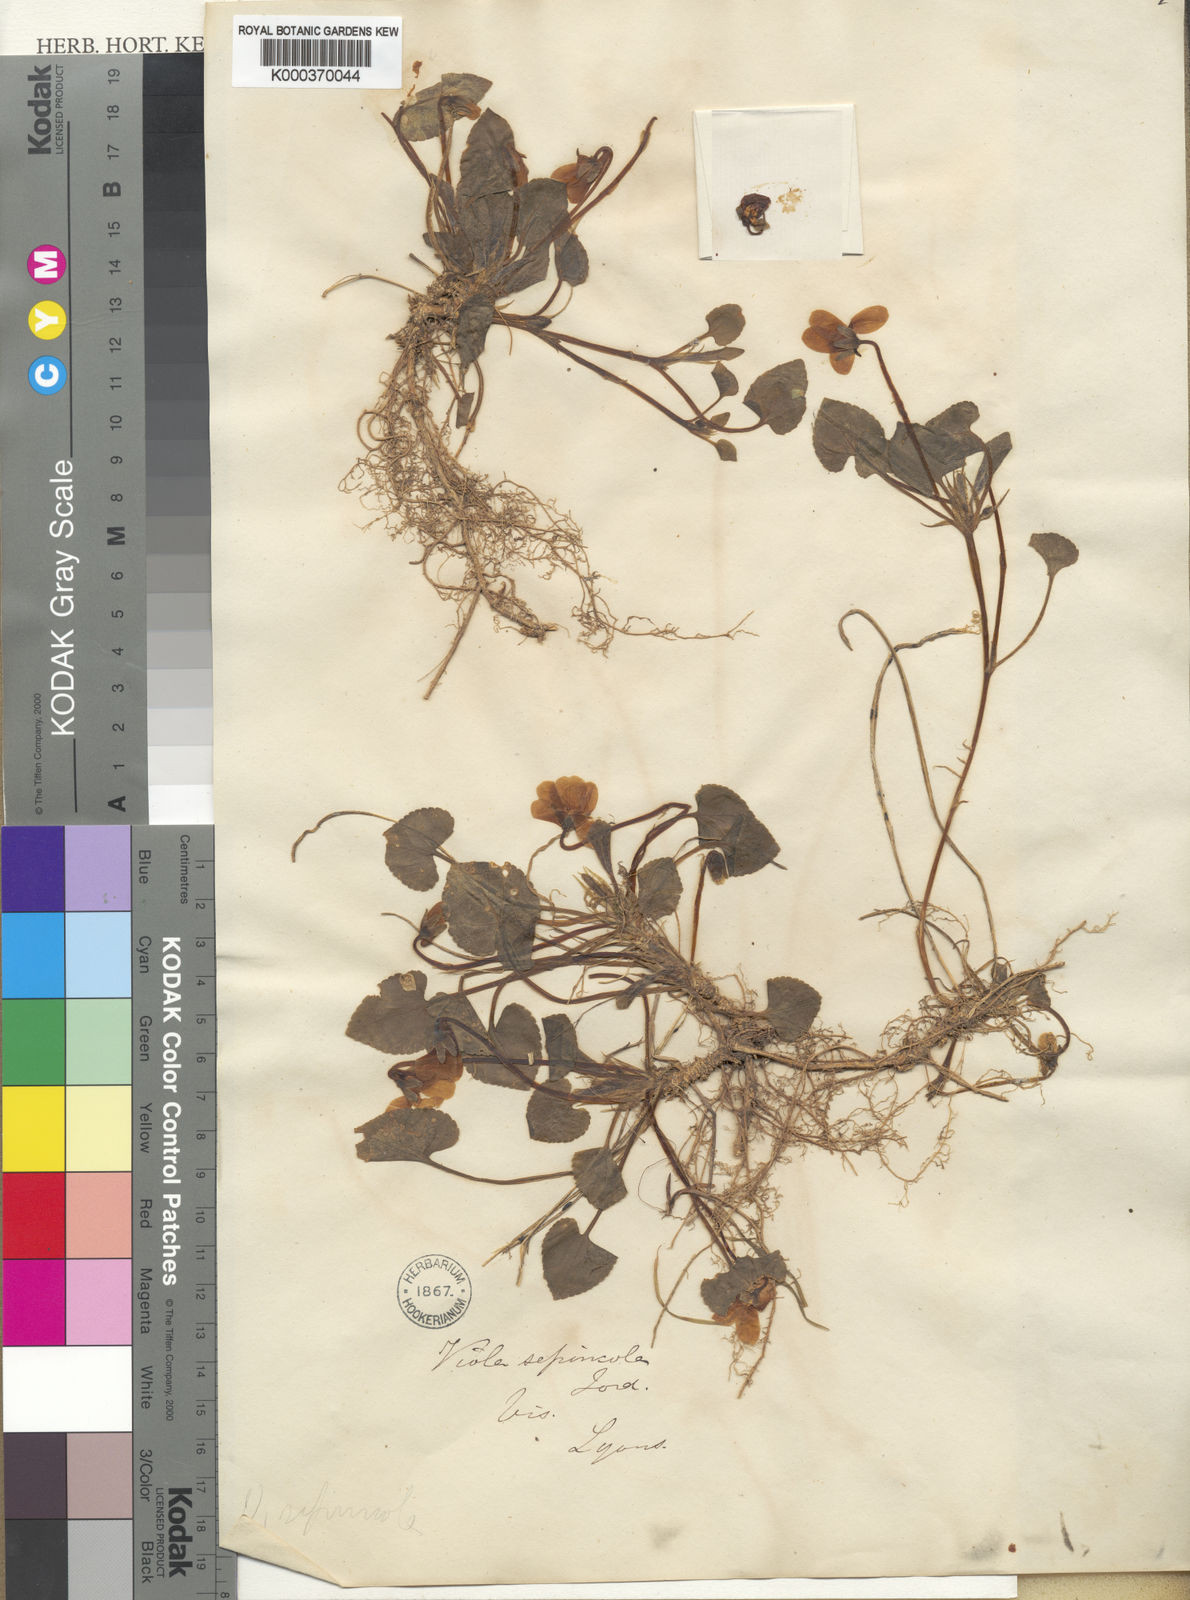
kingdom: Plantae
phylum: Tracheophyta
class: Magnoliopsida
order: Malpighiales
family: Violaceae
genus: Viola
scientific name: Viola suavis
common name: Russian violet
